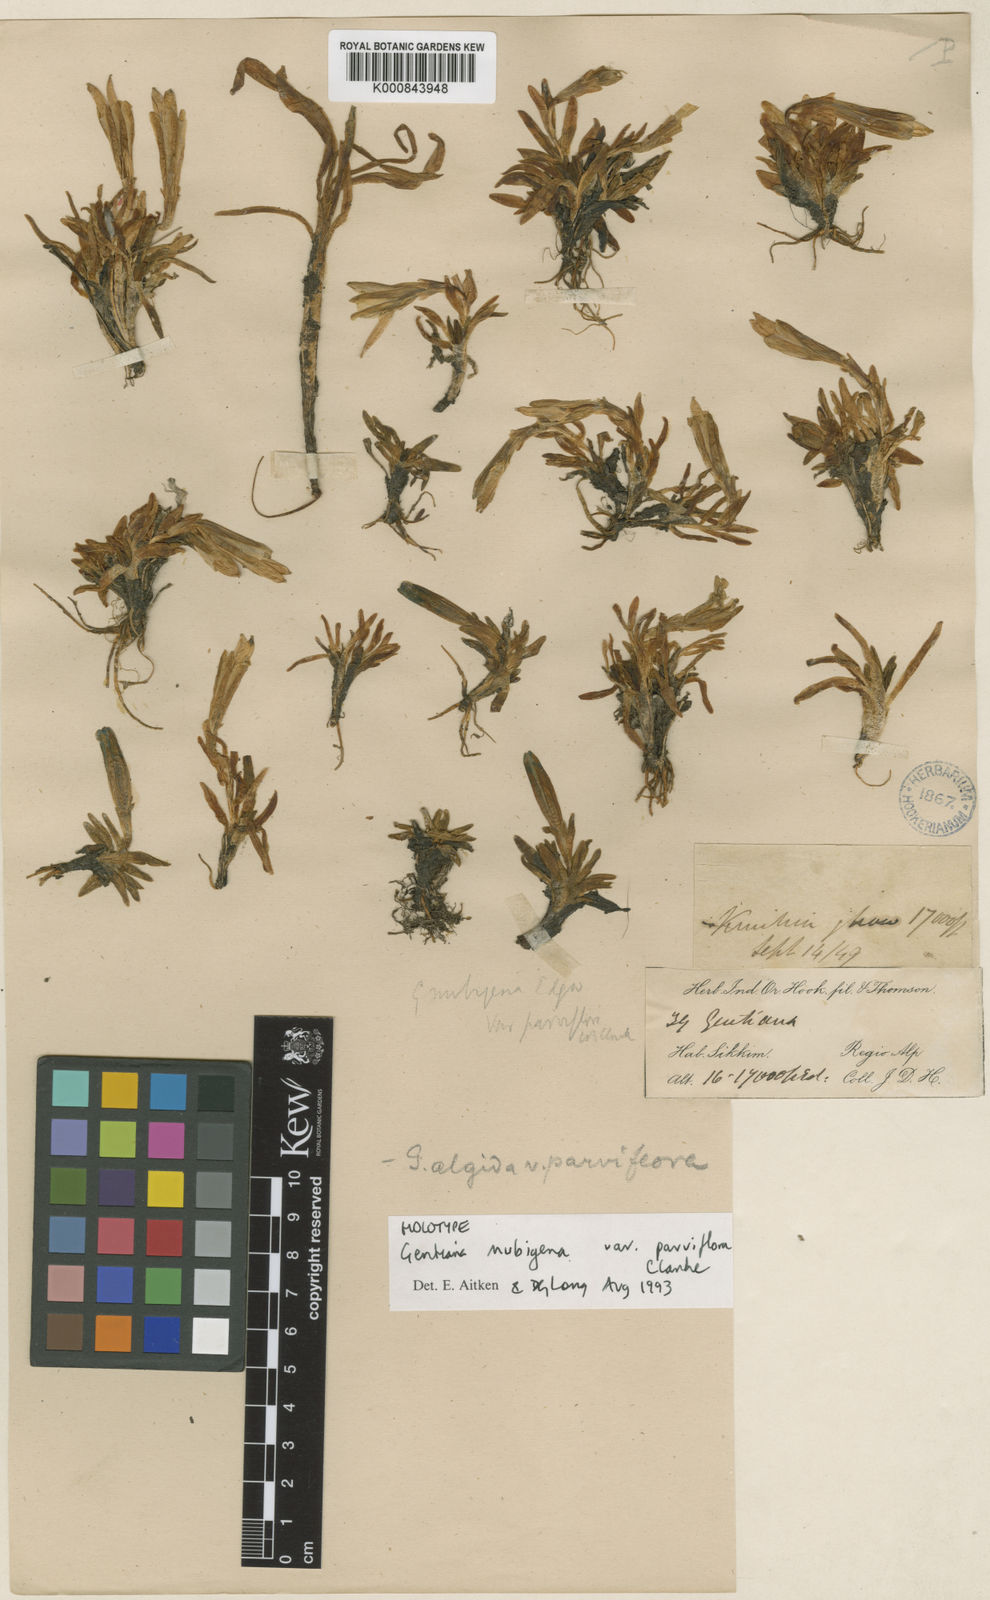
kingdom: Plantae
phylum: Tracheophyta
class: Magnoliopsida
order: Gentianales
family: Gentianaceae
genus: Gentiana
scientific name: Gentiana
